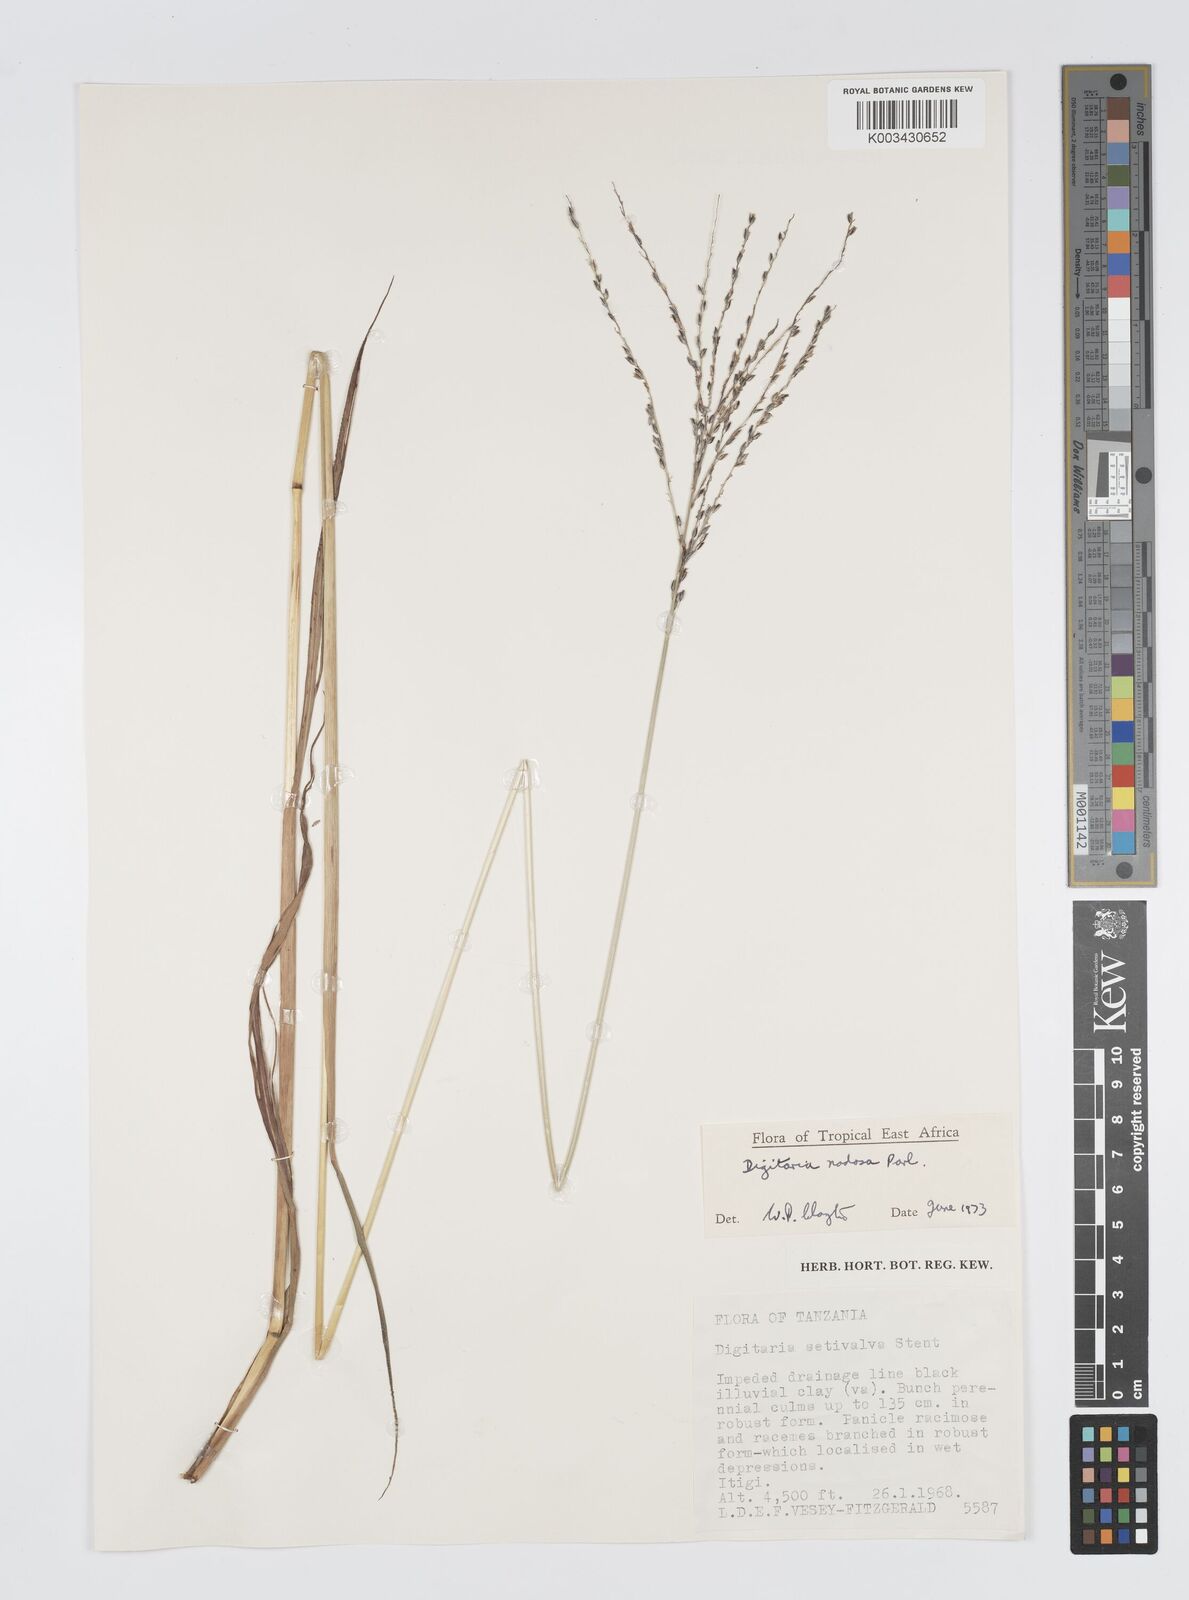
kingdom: Plantae
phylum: Tracheophyta
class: Liliopsida
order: Poales
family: Poaceae
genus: Digitaria
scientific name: Digitaria nodosa
